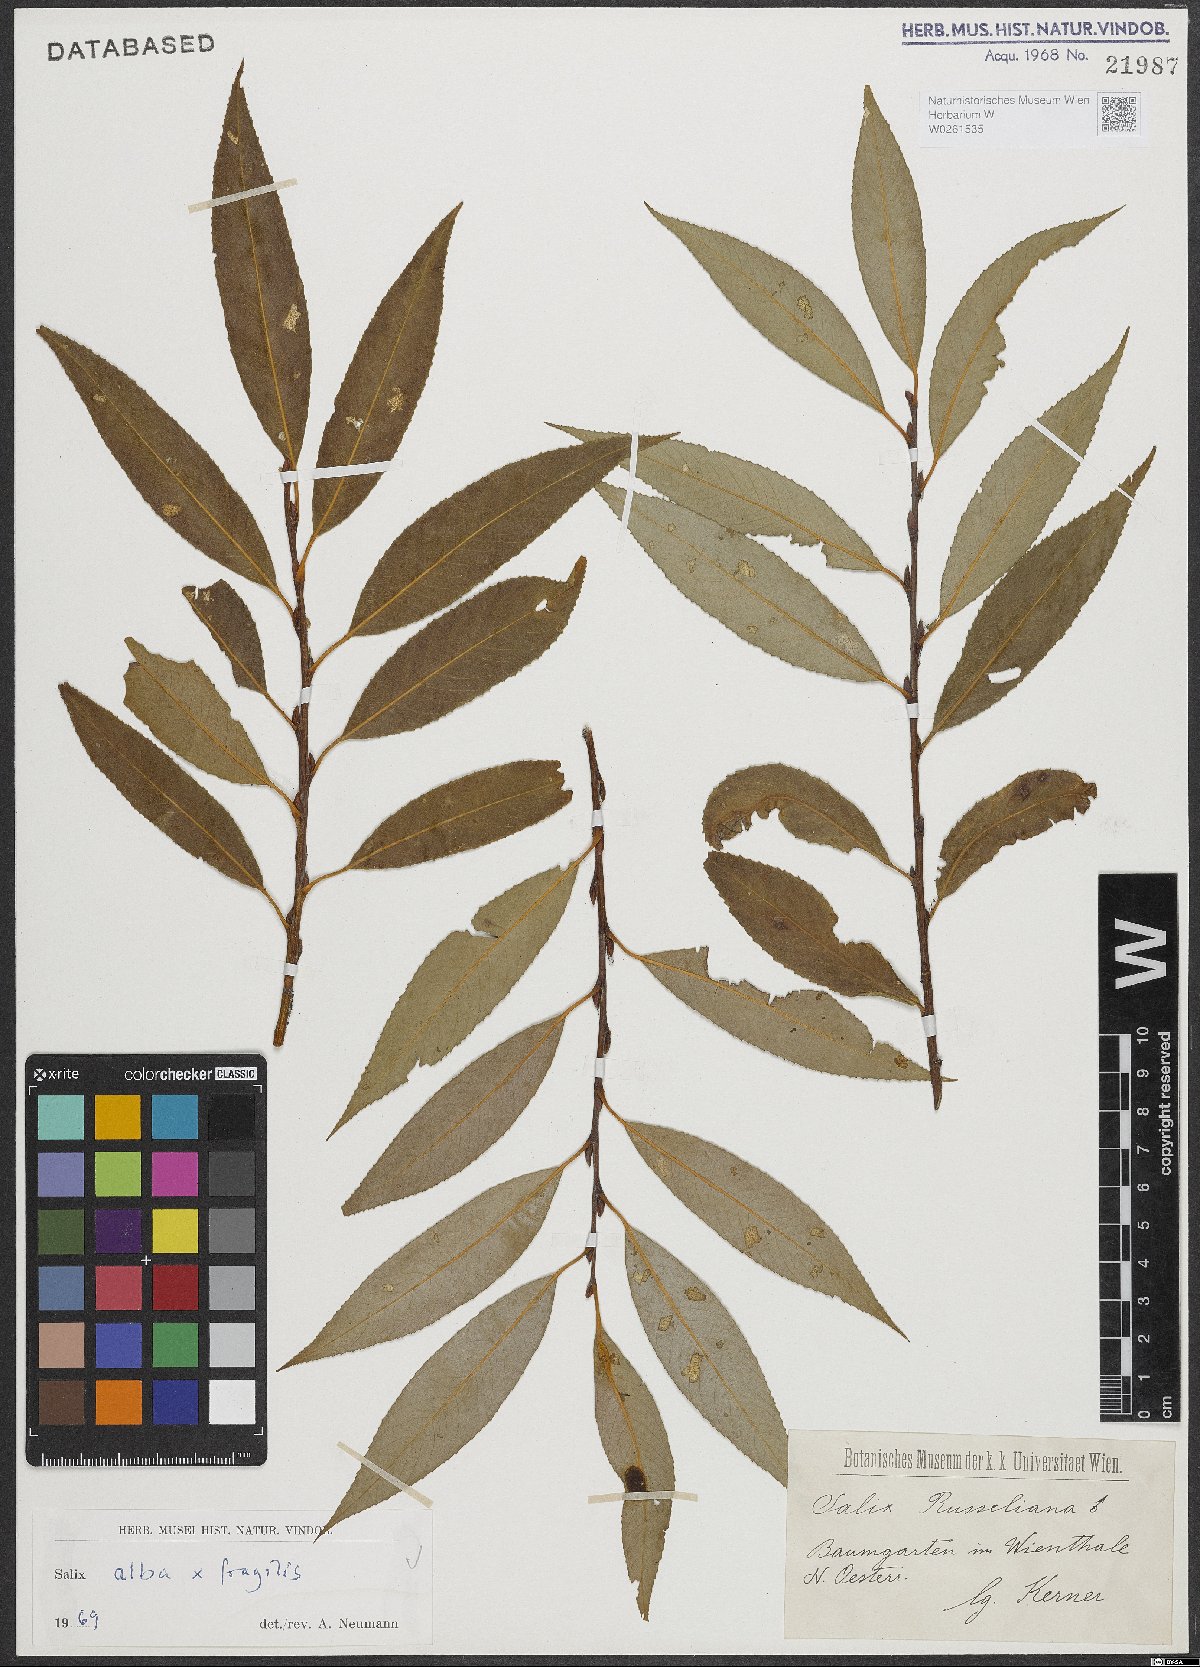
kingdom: Plantae
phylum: Tracheophyta
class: Magnoliopsida
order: Malpighiales
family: Salicaceae
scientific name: Salicaceae
